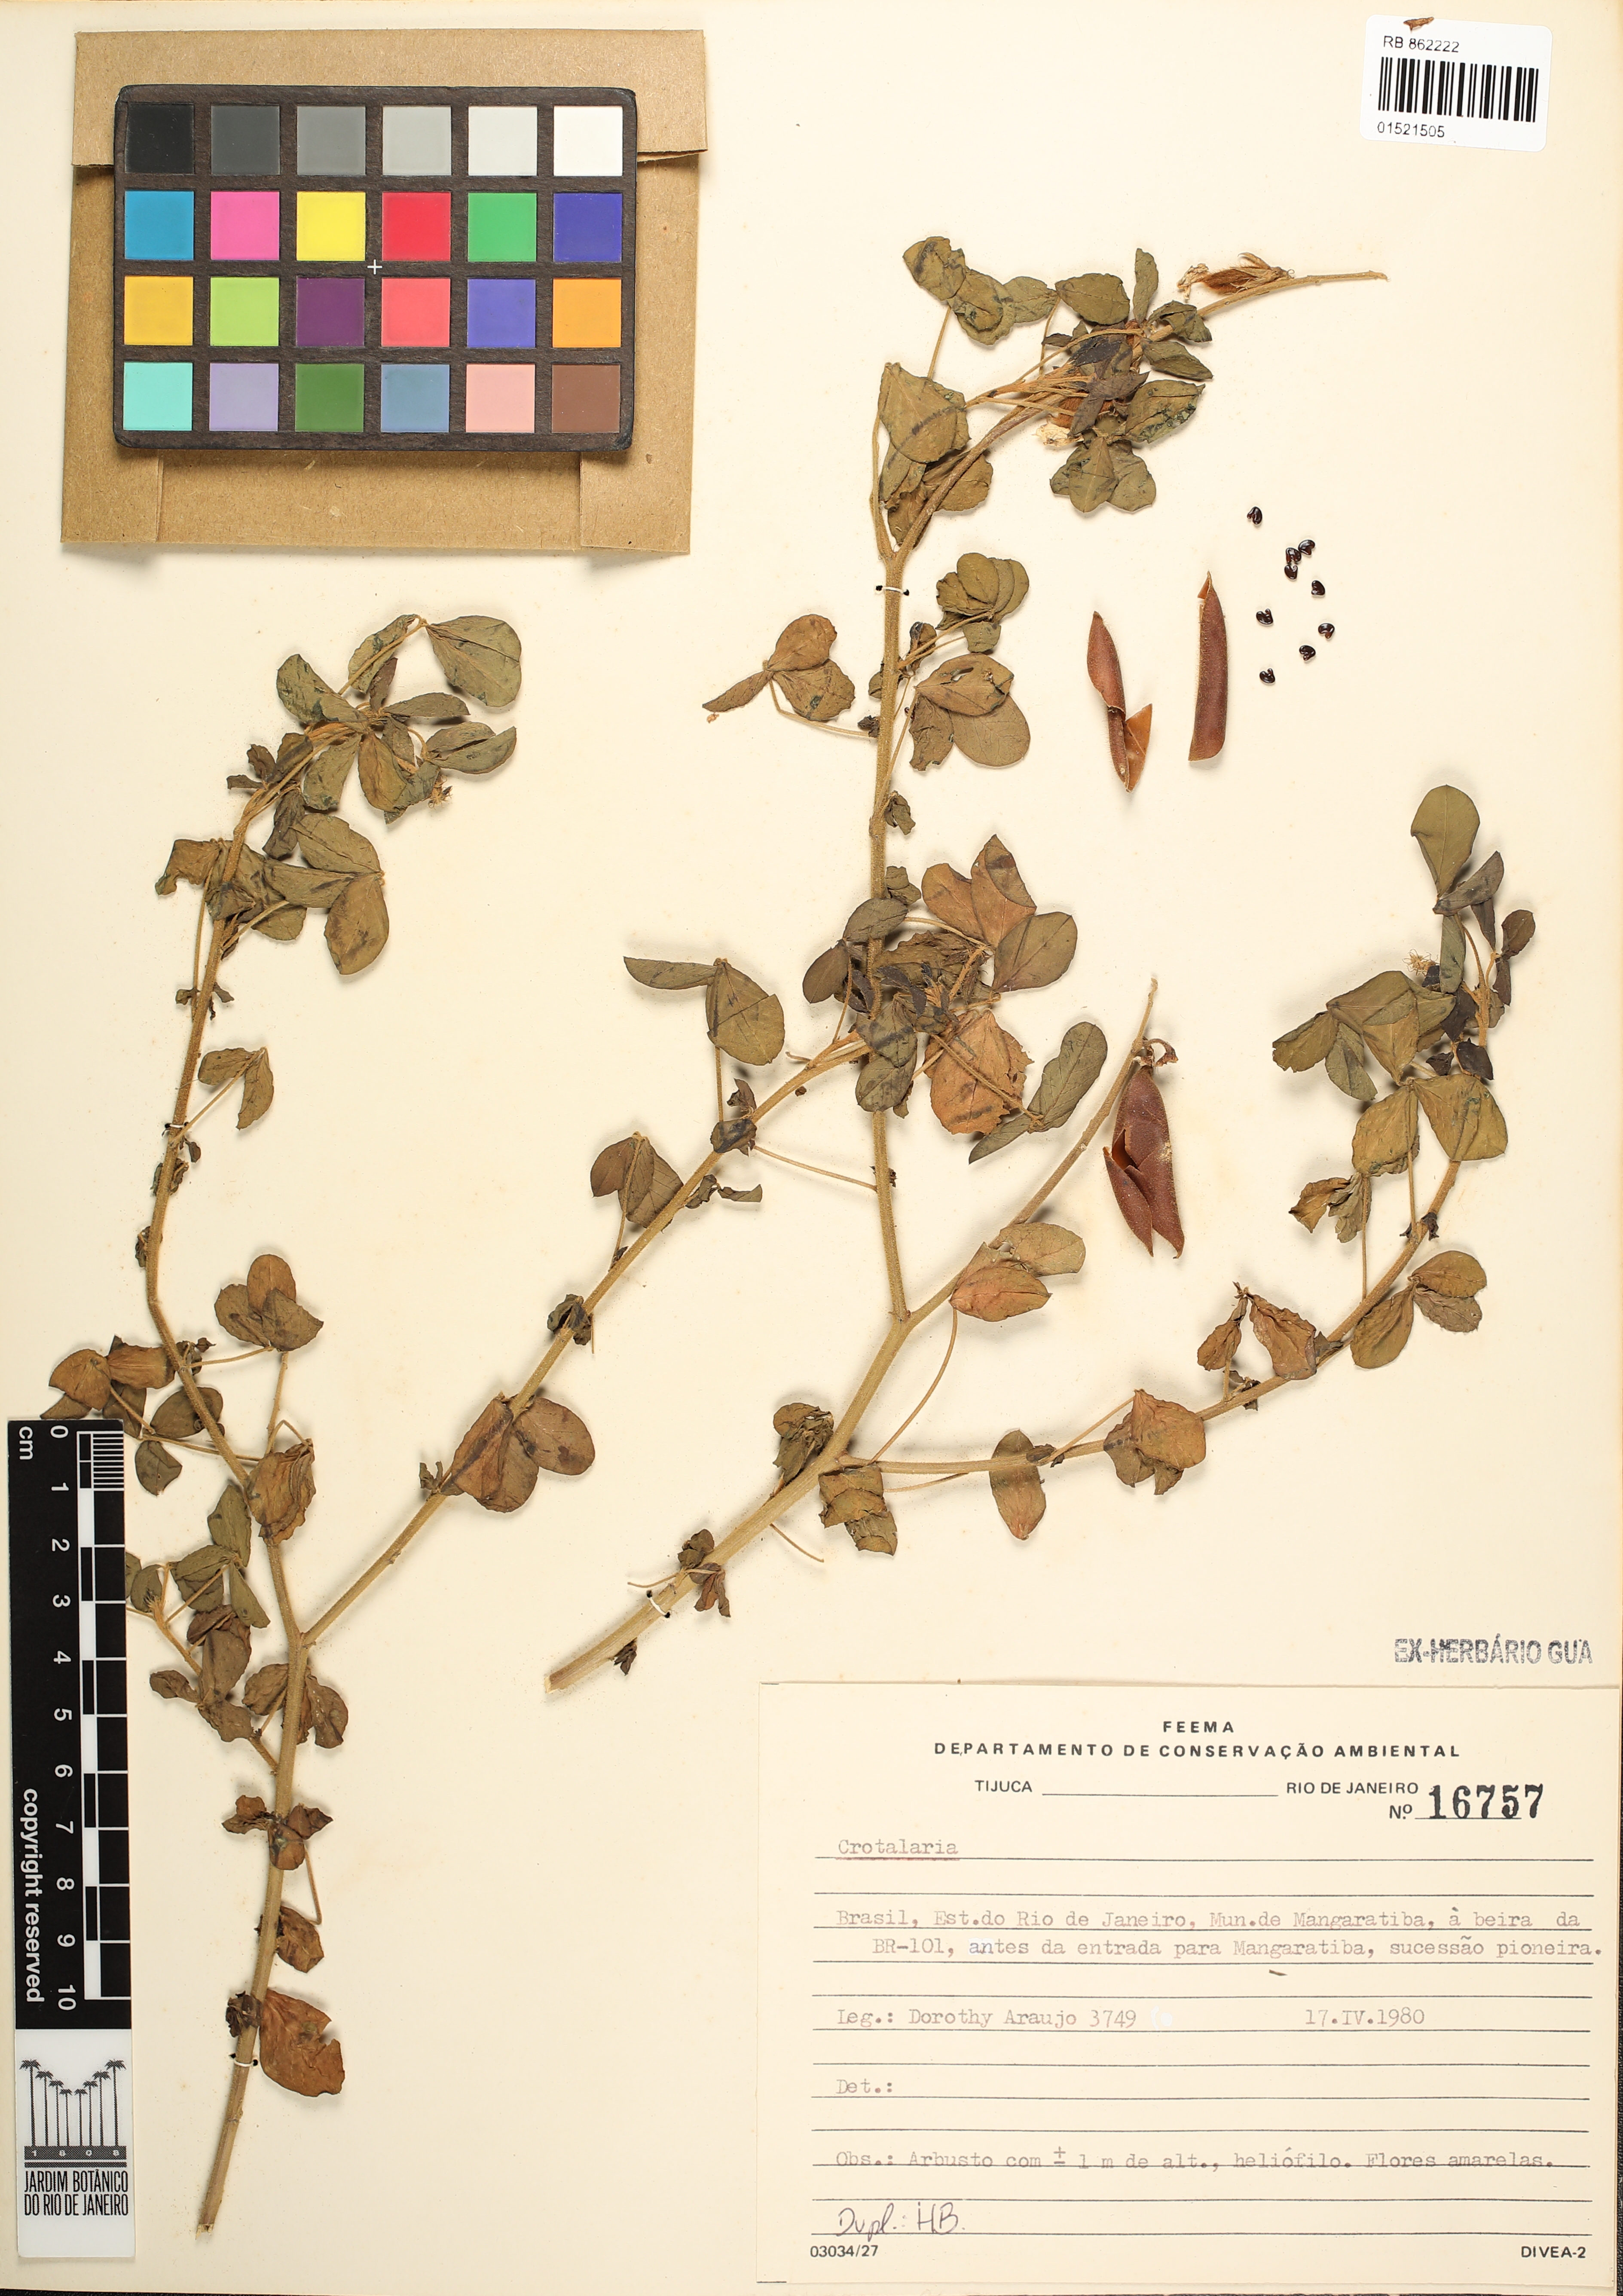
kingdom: Plantae
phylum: Tracheophyta
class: Magnoliopsida
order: Fabales
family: Fabaceae
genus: Crotalaria
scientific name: Crotalaria
